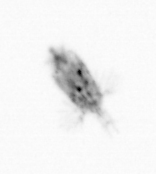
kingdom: Animalia
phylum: Arthropoda
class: Copepoda
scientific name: Copepoda
